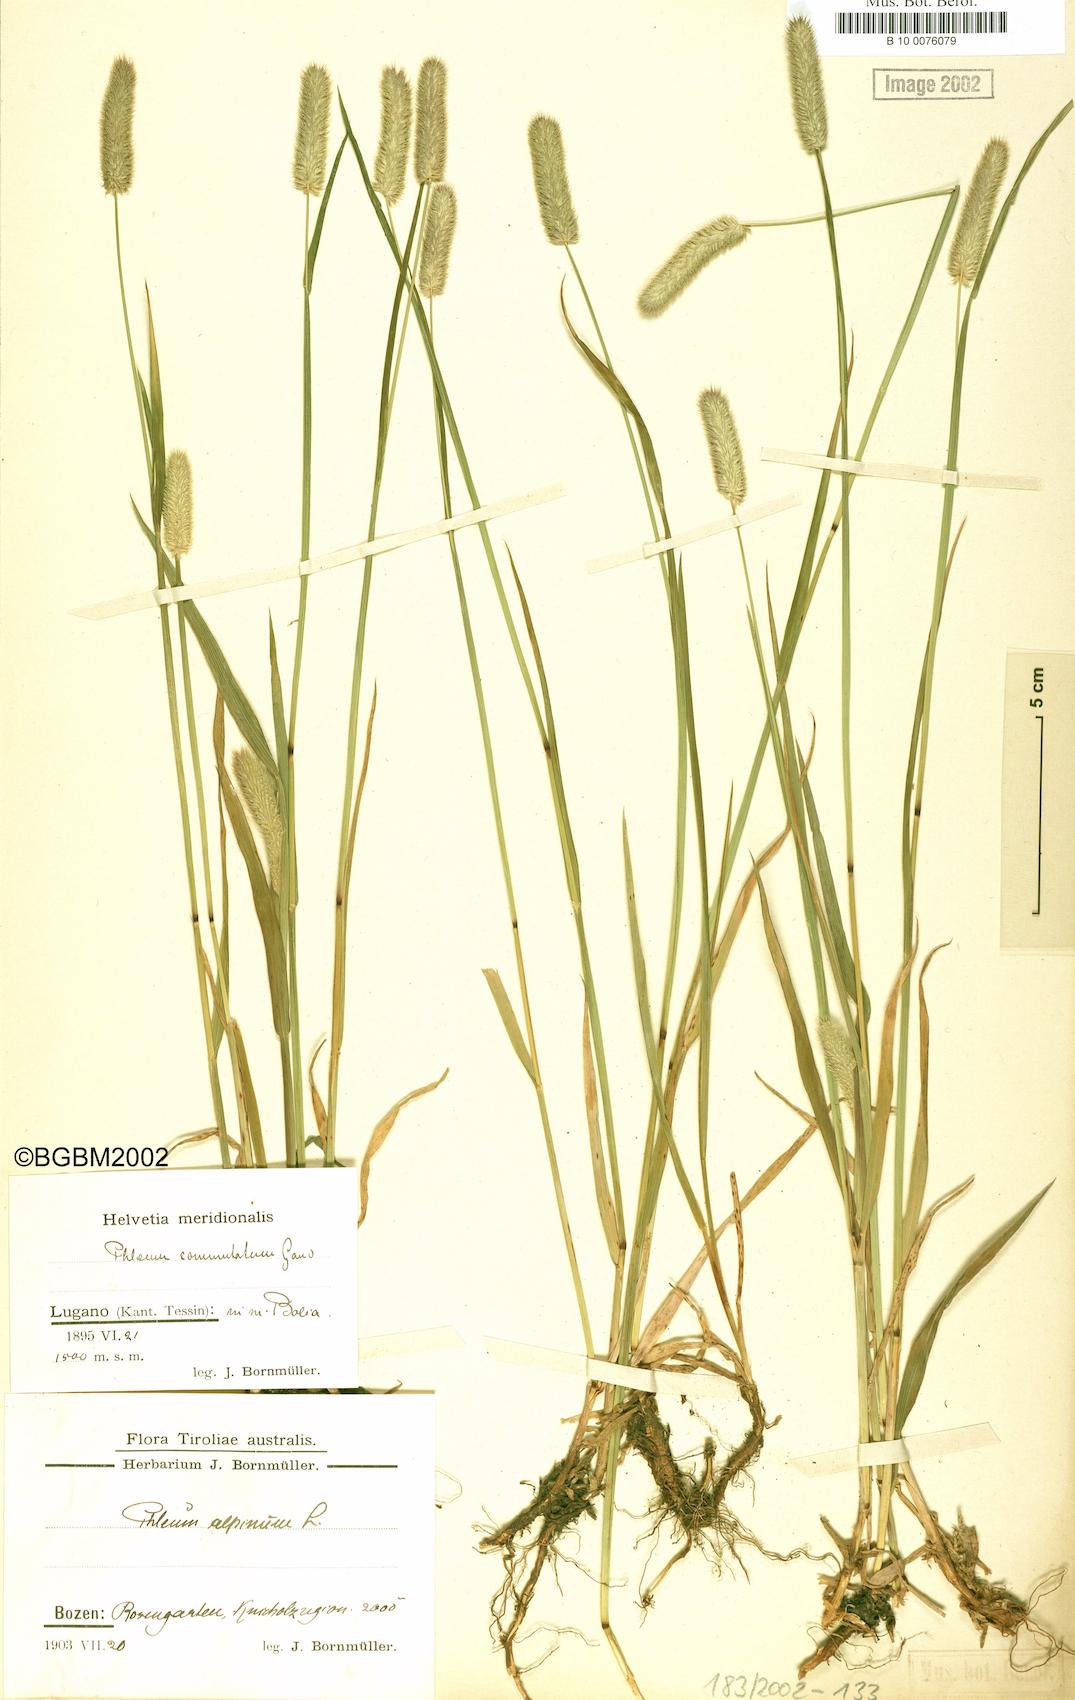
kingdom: Plantae
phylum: Tracheophyta
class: Liliopsida
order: Poales
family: Poaceae
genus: Phleum
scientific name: Phleum alpinum
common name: Alpine cat's-tail
